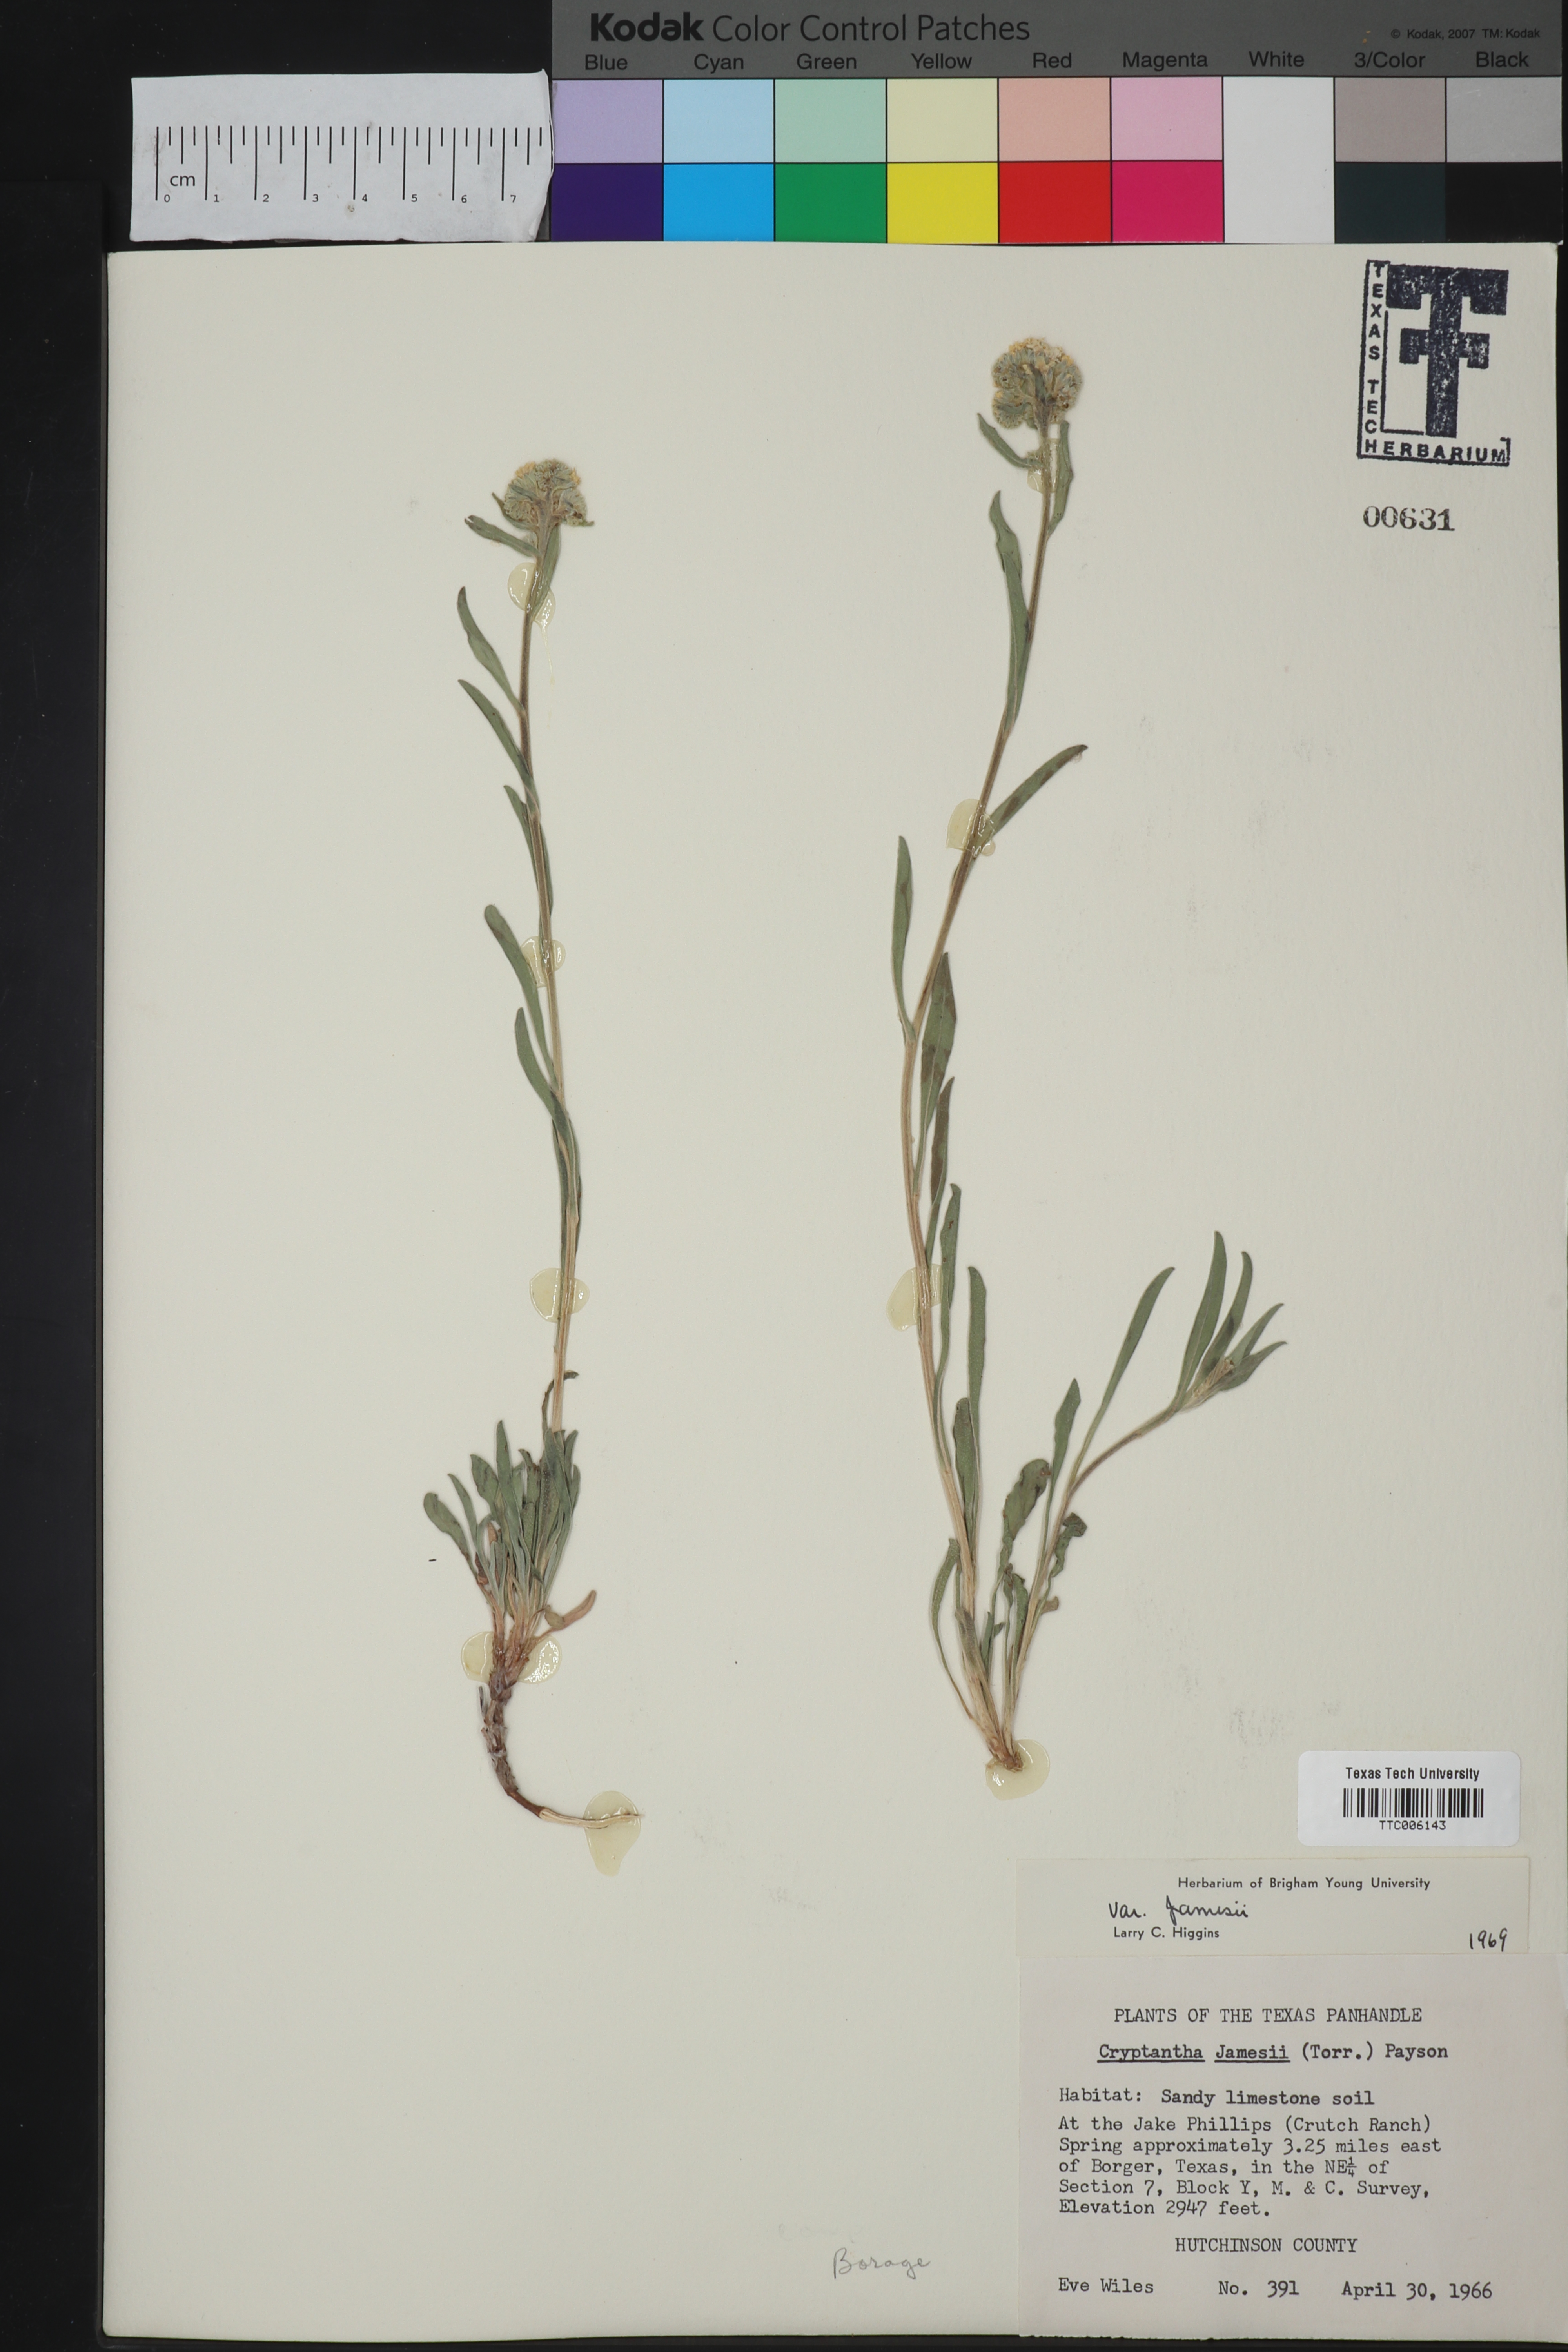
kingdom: Plantae
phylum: Tracheophyta
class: Magnoliopsida
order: Boraginales
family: Boraginaceae
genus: Oreocarya
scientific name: Oreocarya suffruticosa
